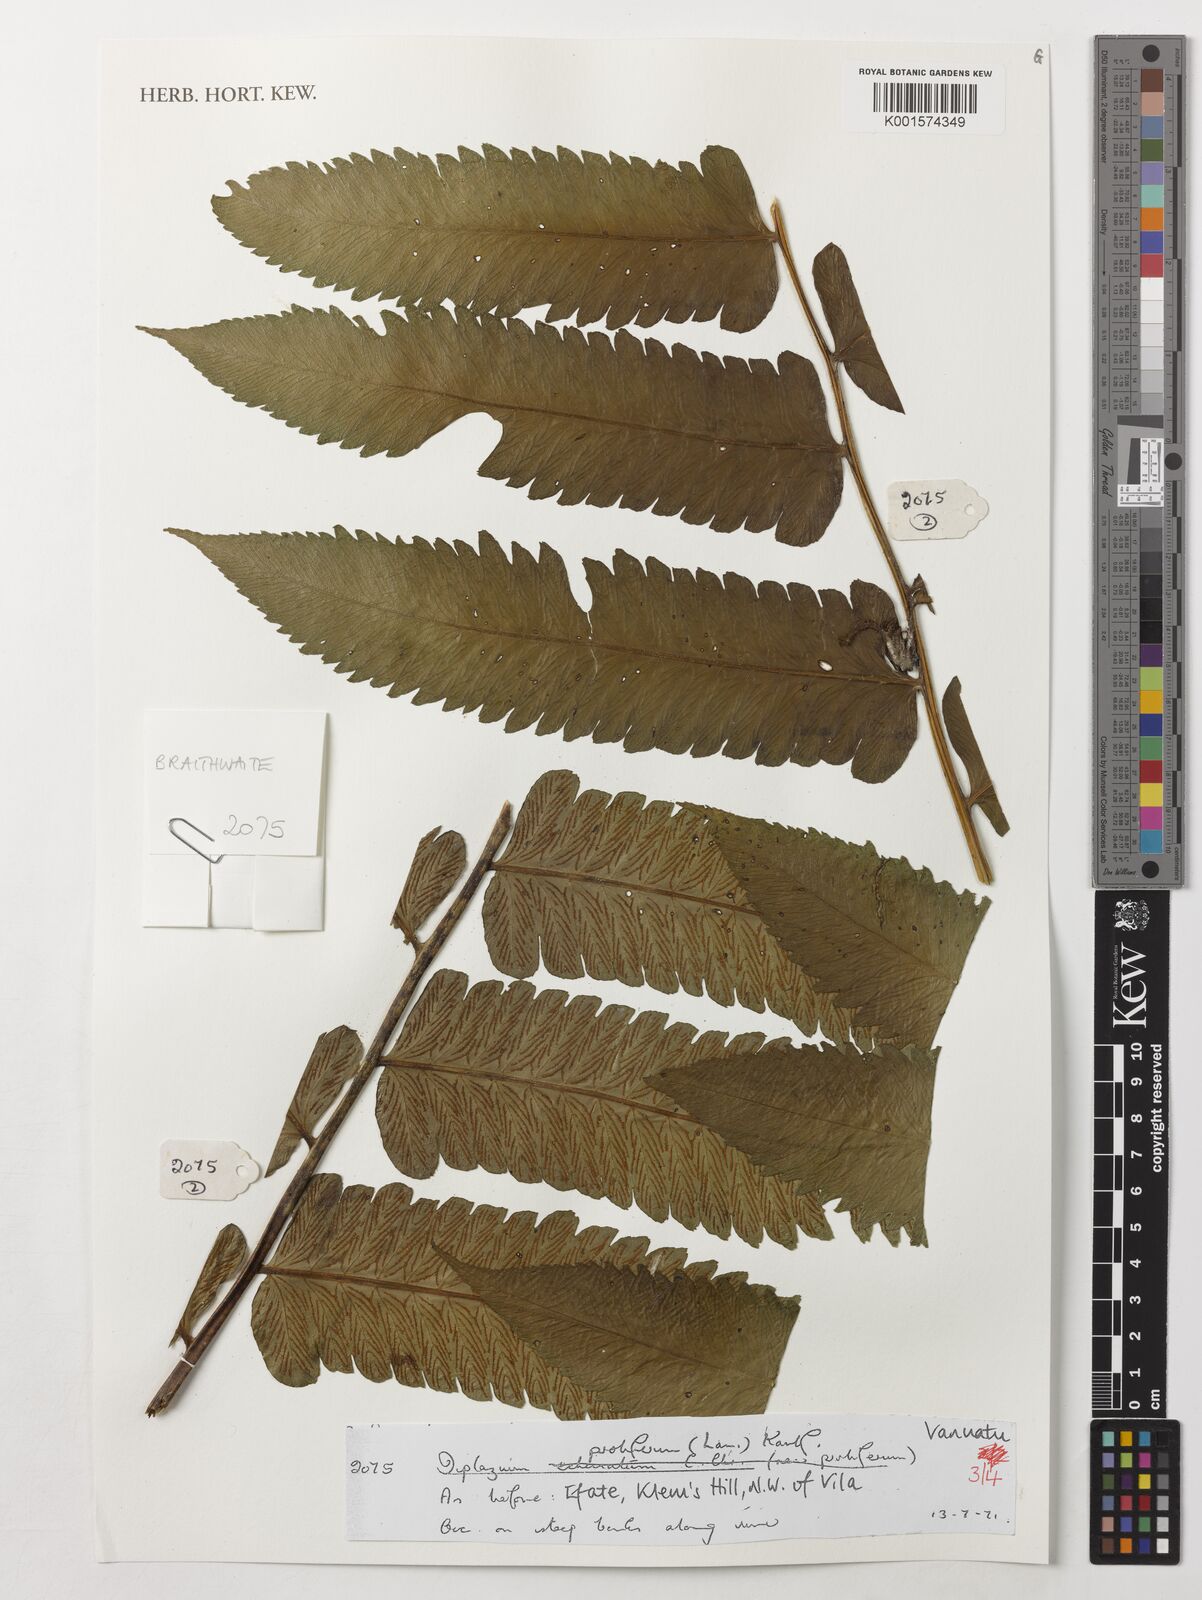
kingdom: Plantae
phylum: Tracheophyta
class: Polypodiopsida
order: Polypodiales
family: Athyriaceae
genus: Diplazium
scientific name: Diplazium proliferum
